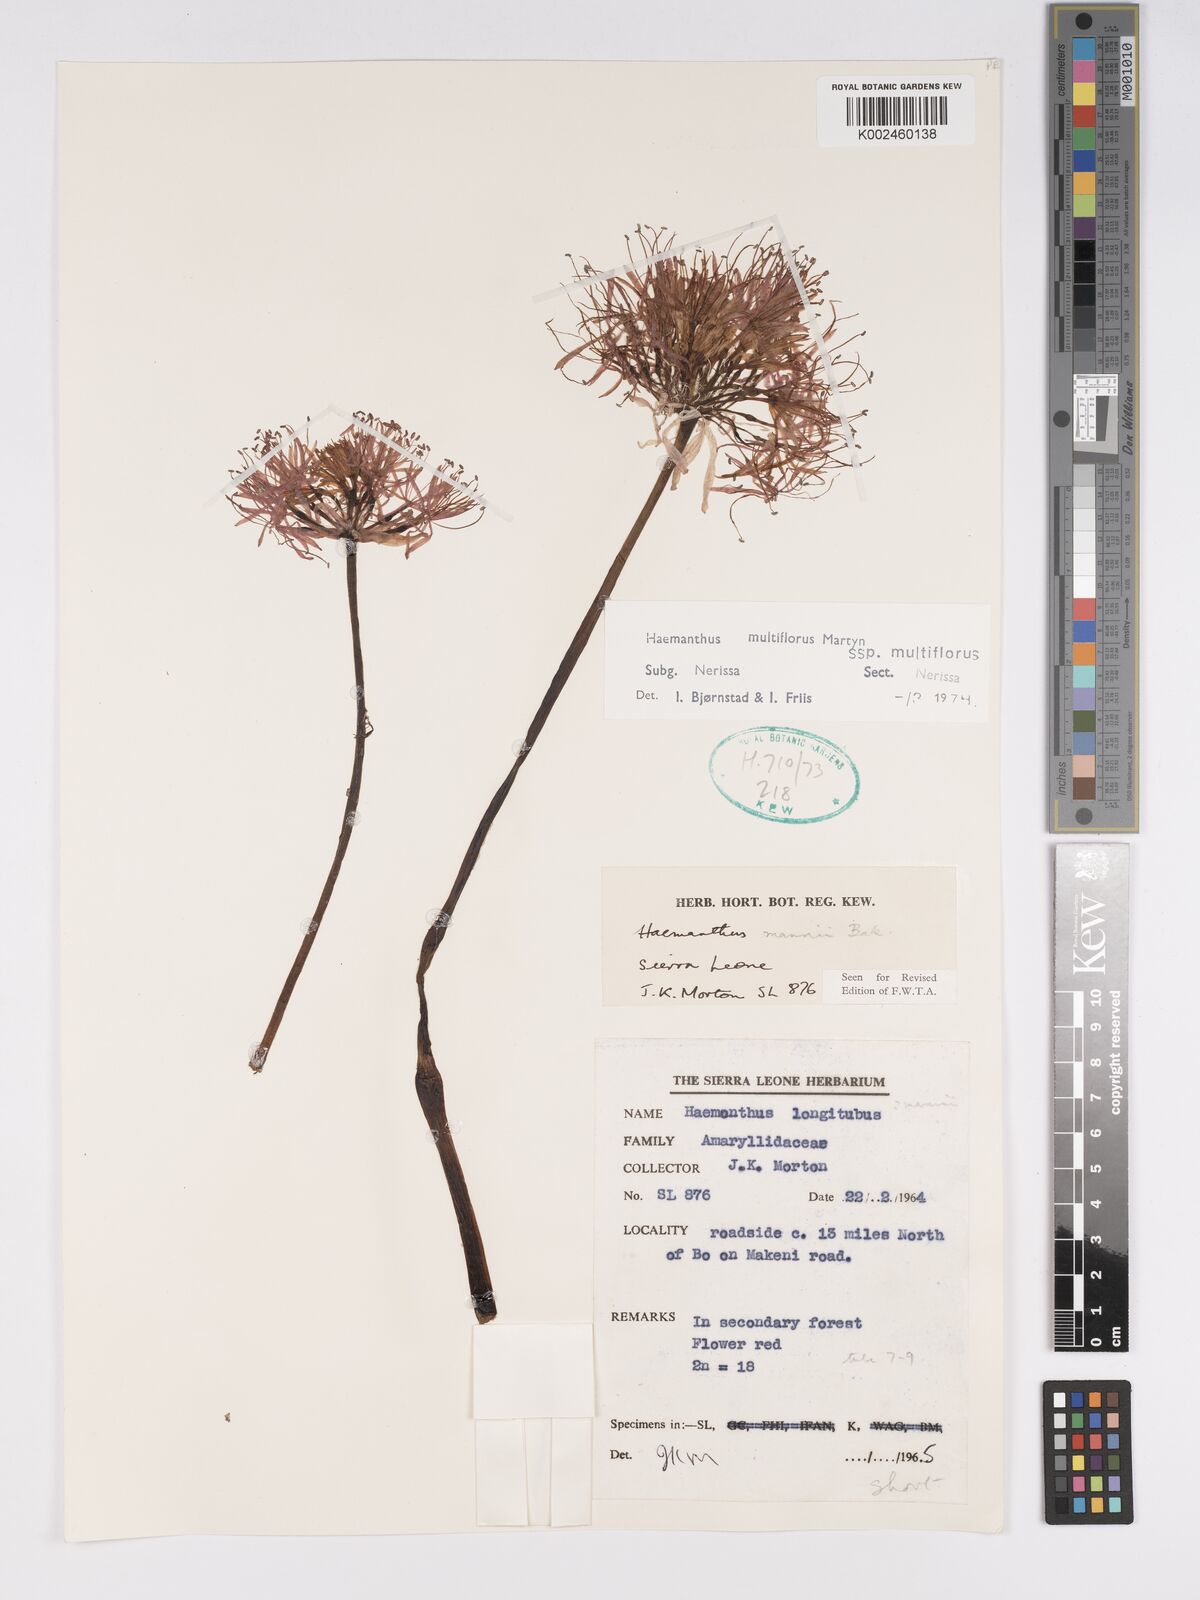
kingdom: Plantae
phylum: Tracheophyta
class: Liliopsida
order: Asparagales
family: Amaryllidaceae
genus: Scadoxus
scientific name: Scadoxus multiflorus
